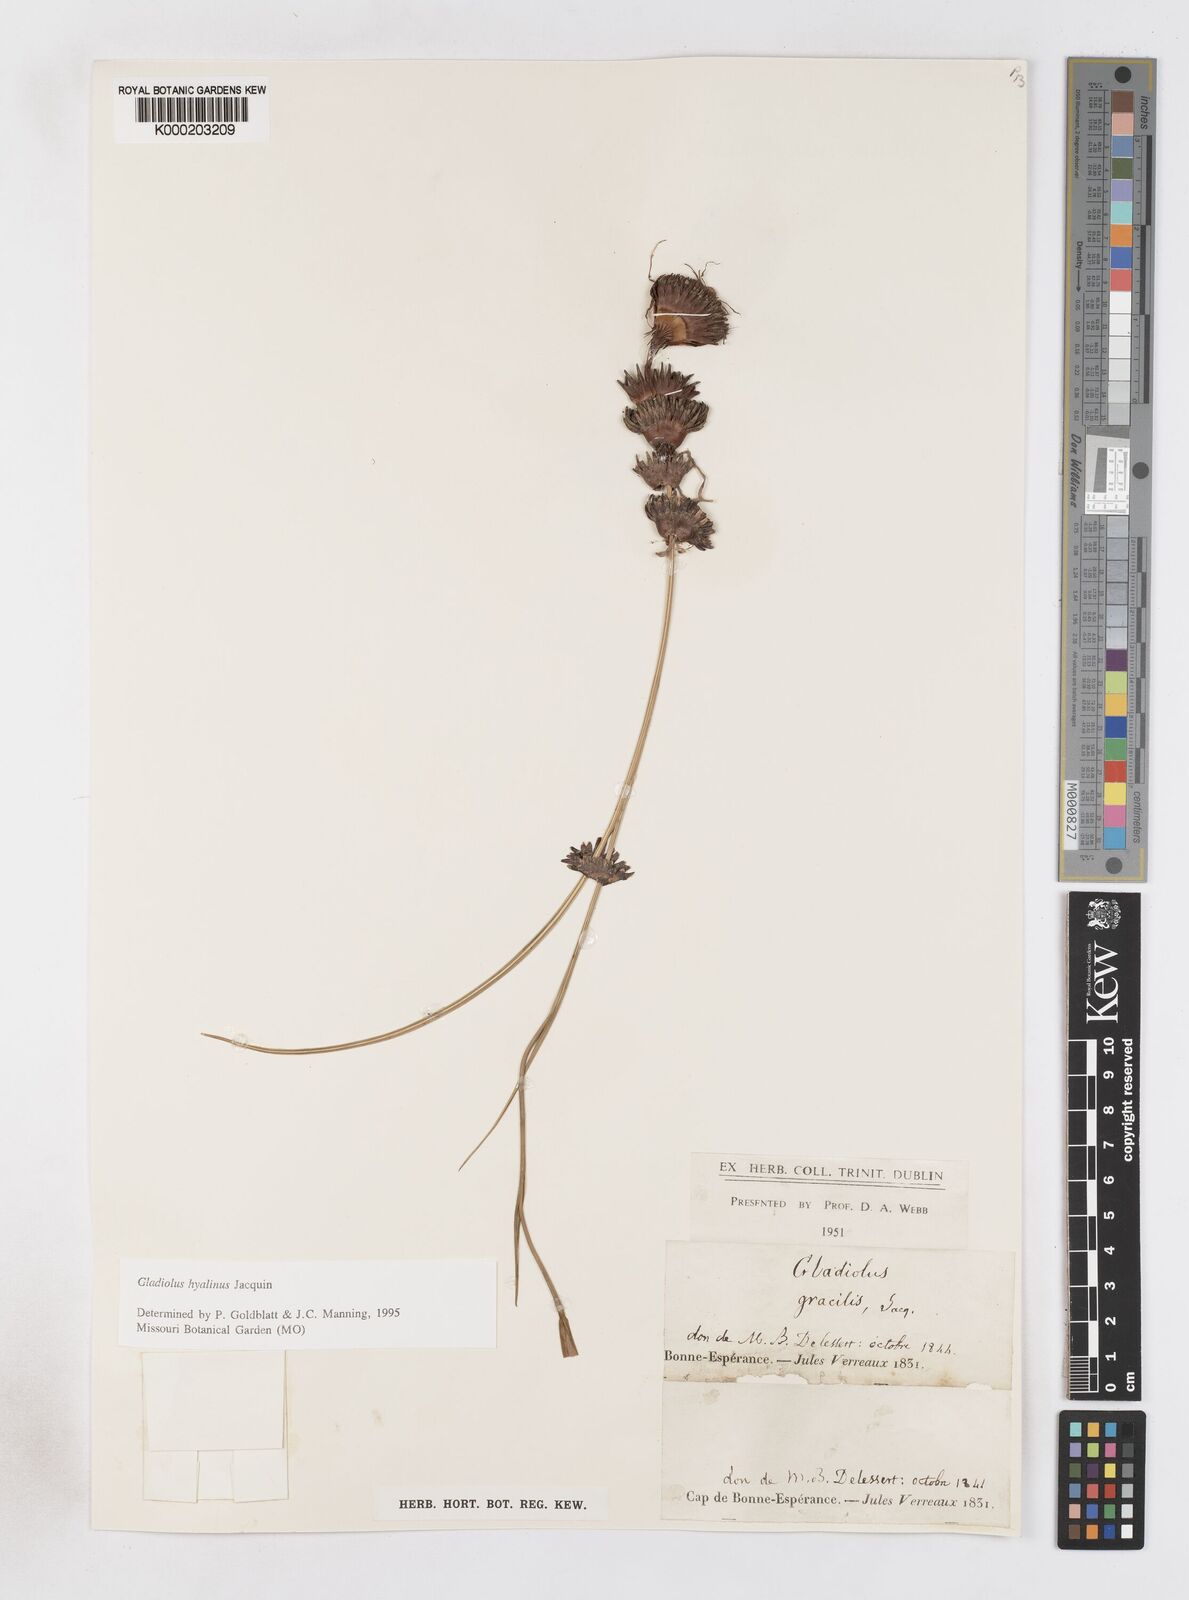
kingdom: Plantae
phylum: Tracheophyta
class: Liliopsida
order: Asparagales
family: Iridaceae
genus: Gladiolus
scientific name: Gladiolus hyalinus
